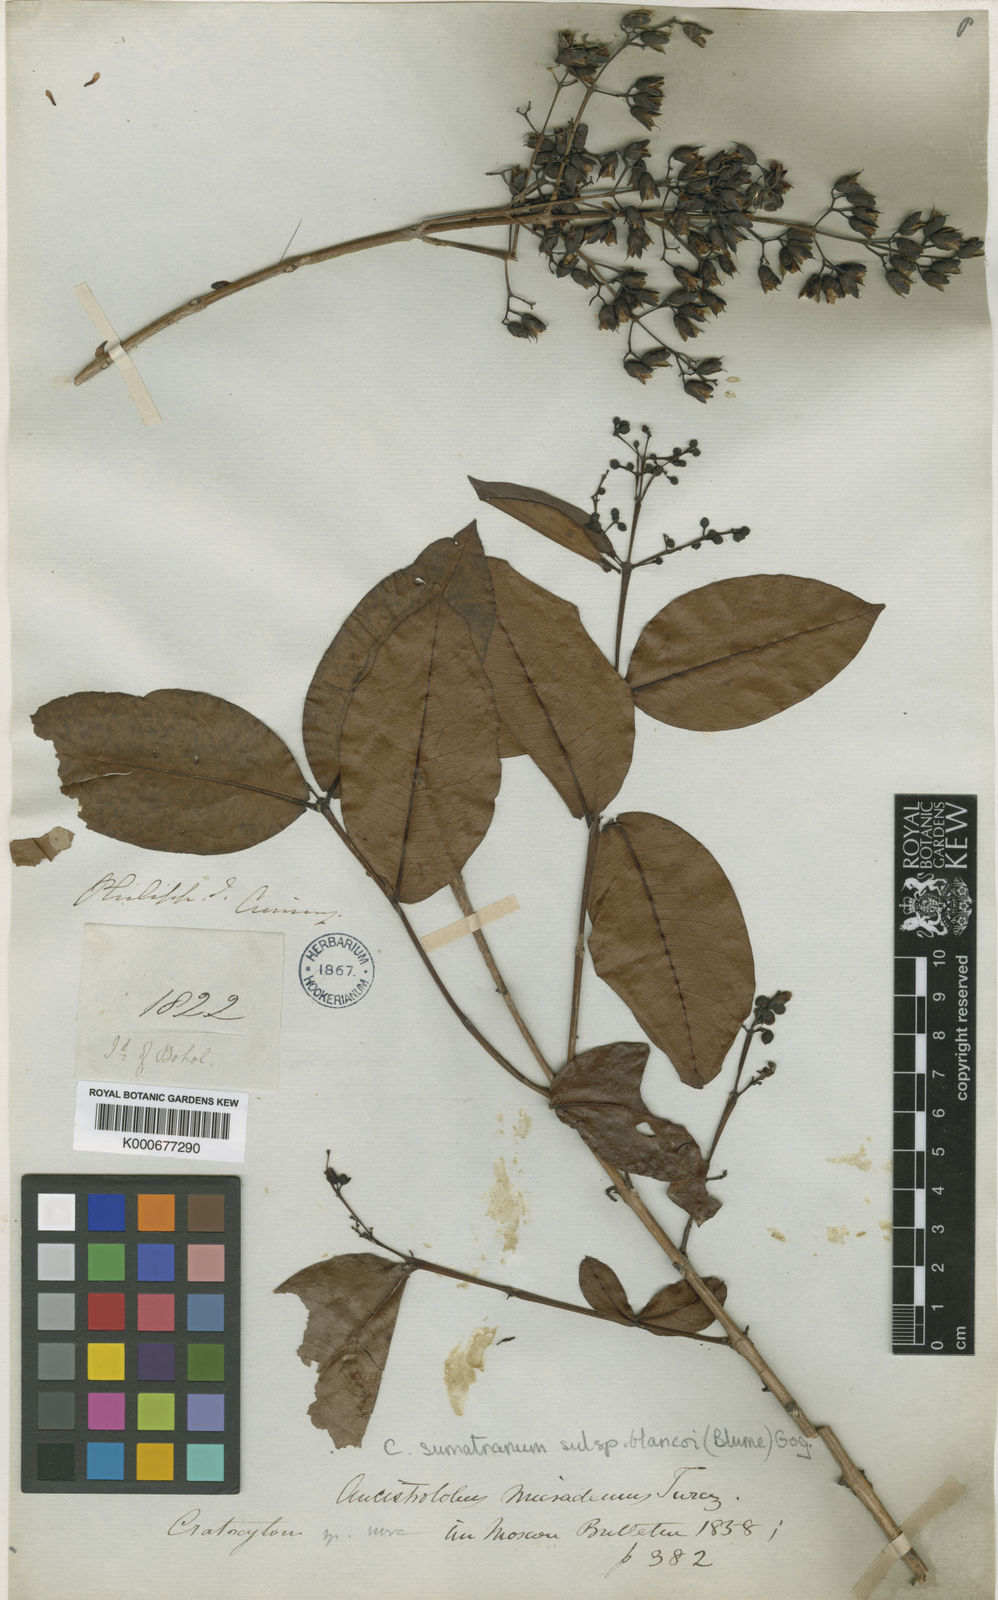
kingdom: Plantae
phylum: Tracheophyta
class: Magnoliopsida
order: Malpighiales
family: Hypericaceae
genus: Cratoxylum
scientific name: Cratoxylum sumatranum
